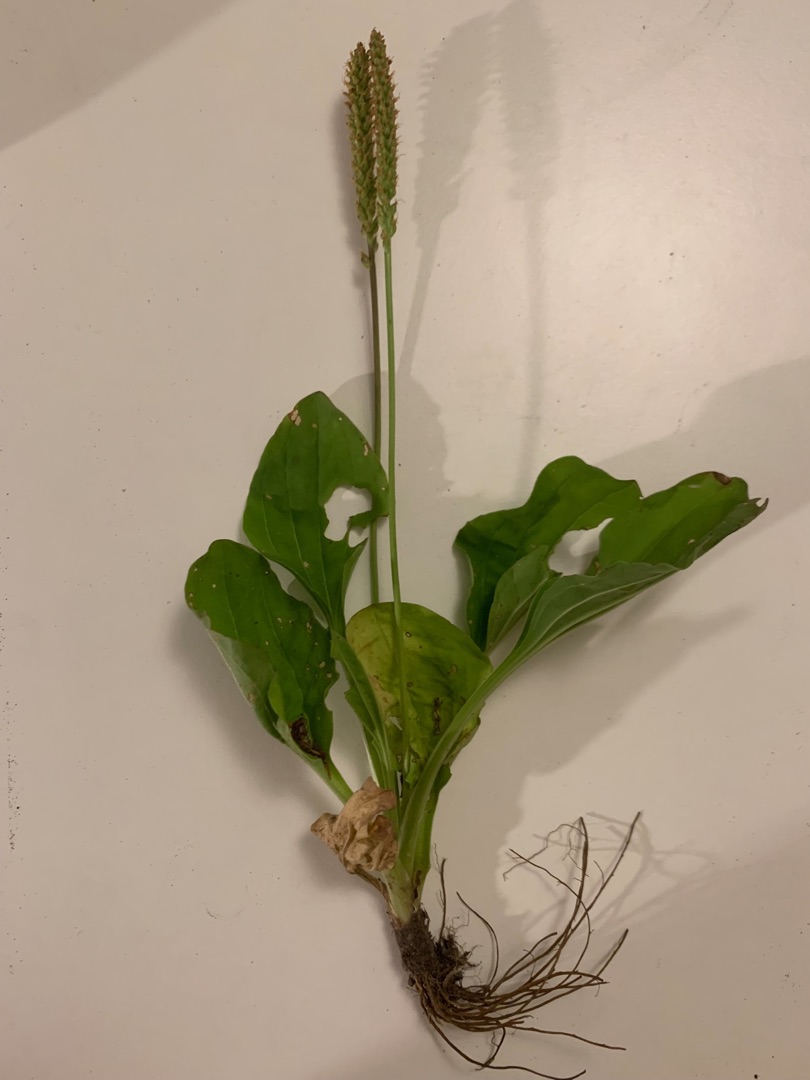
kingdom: Plantae
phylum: Tracheophyta
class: Magnoliopsida
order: Lamiales
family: Plantaginaceae
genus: Plantago
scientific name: Plantago major
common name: Glat vejbred
